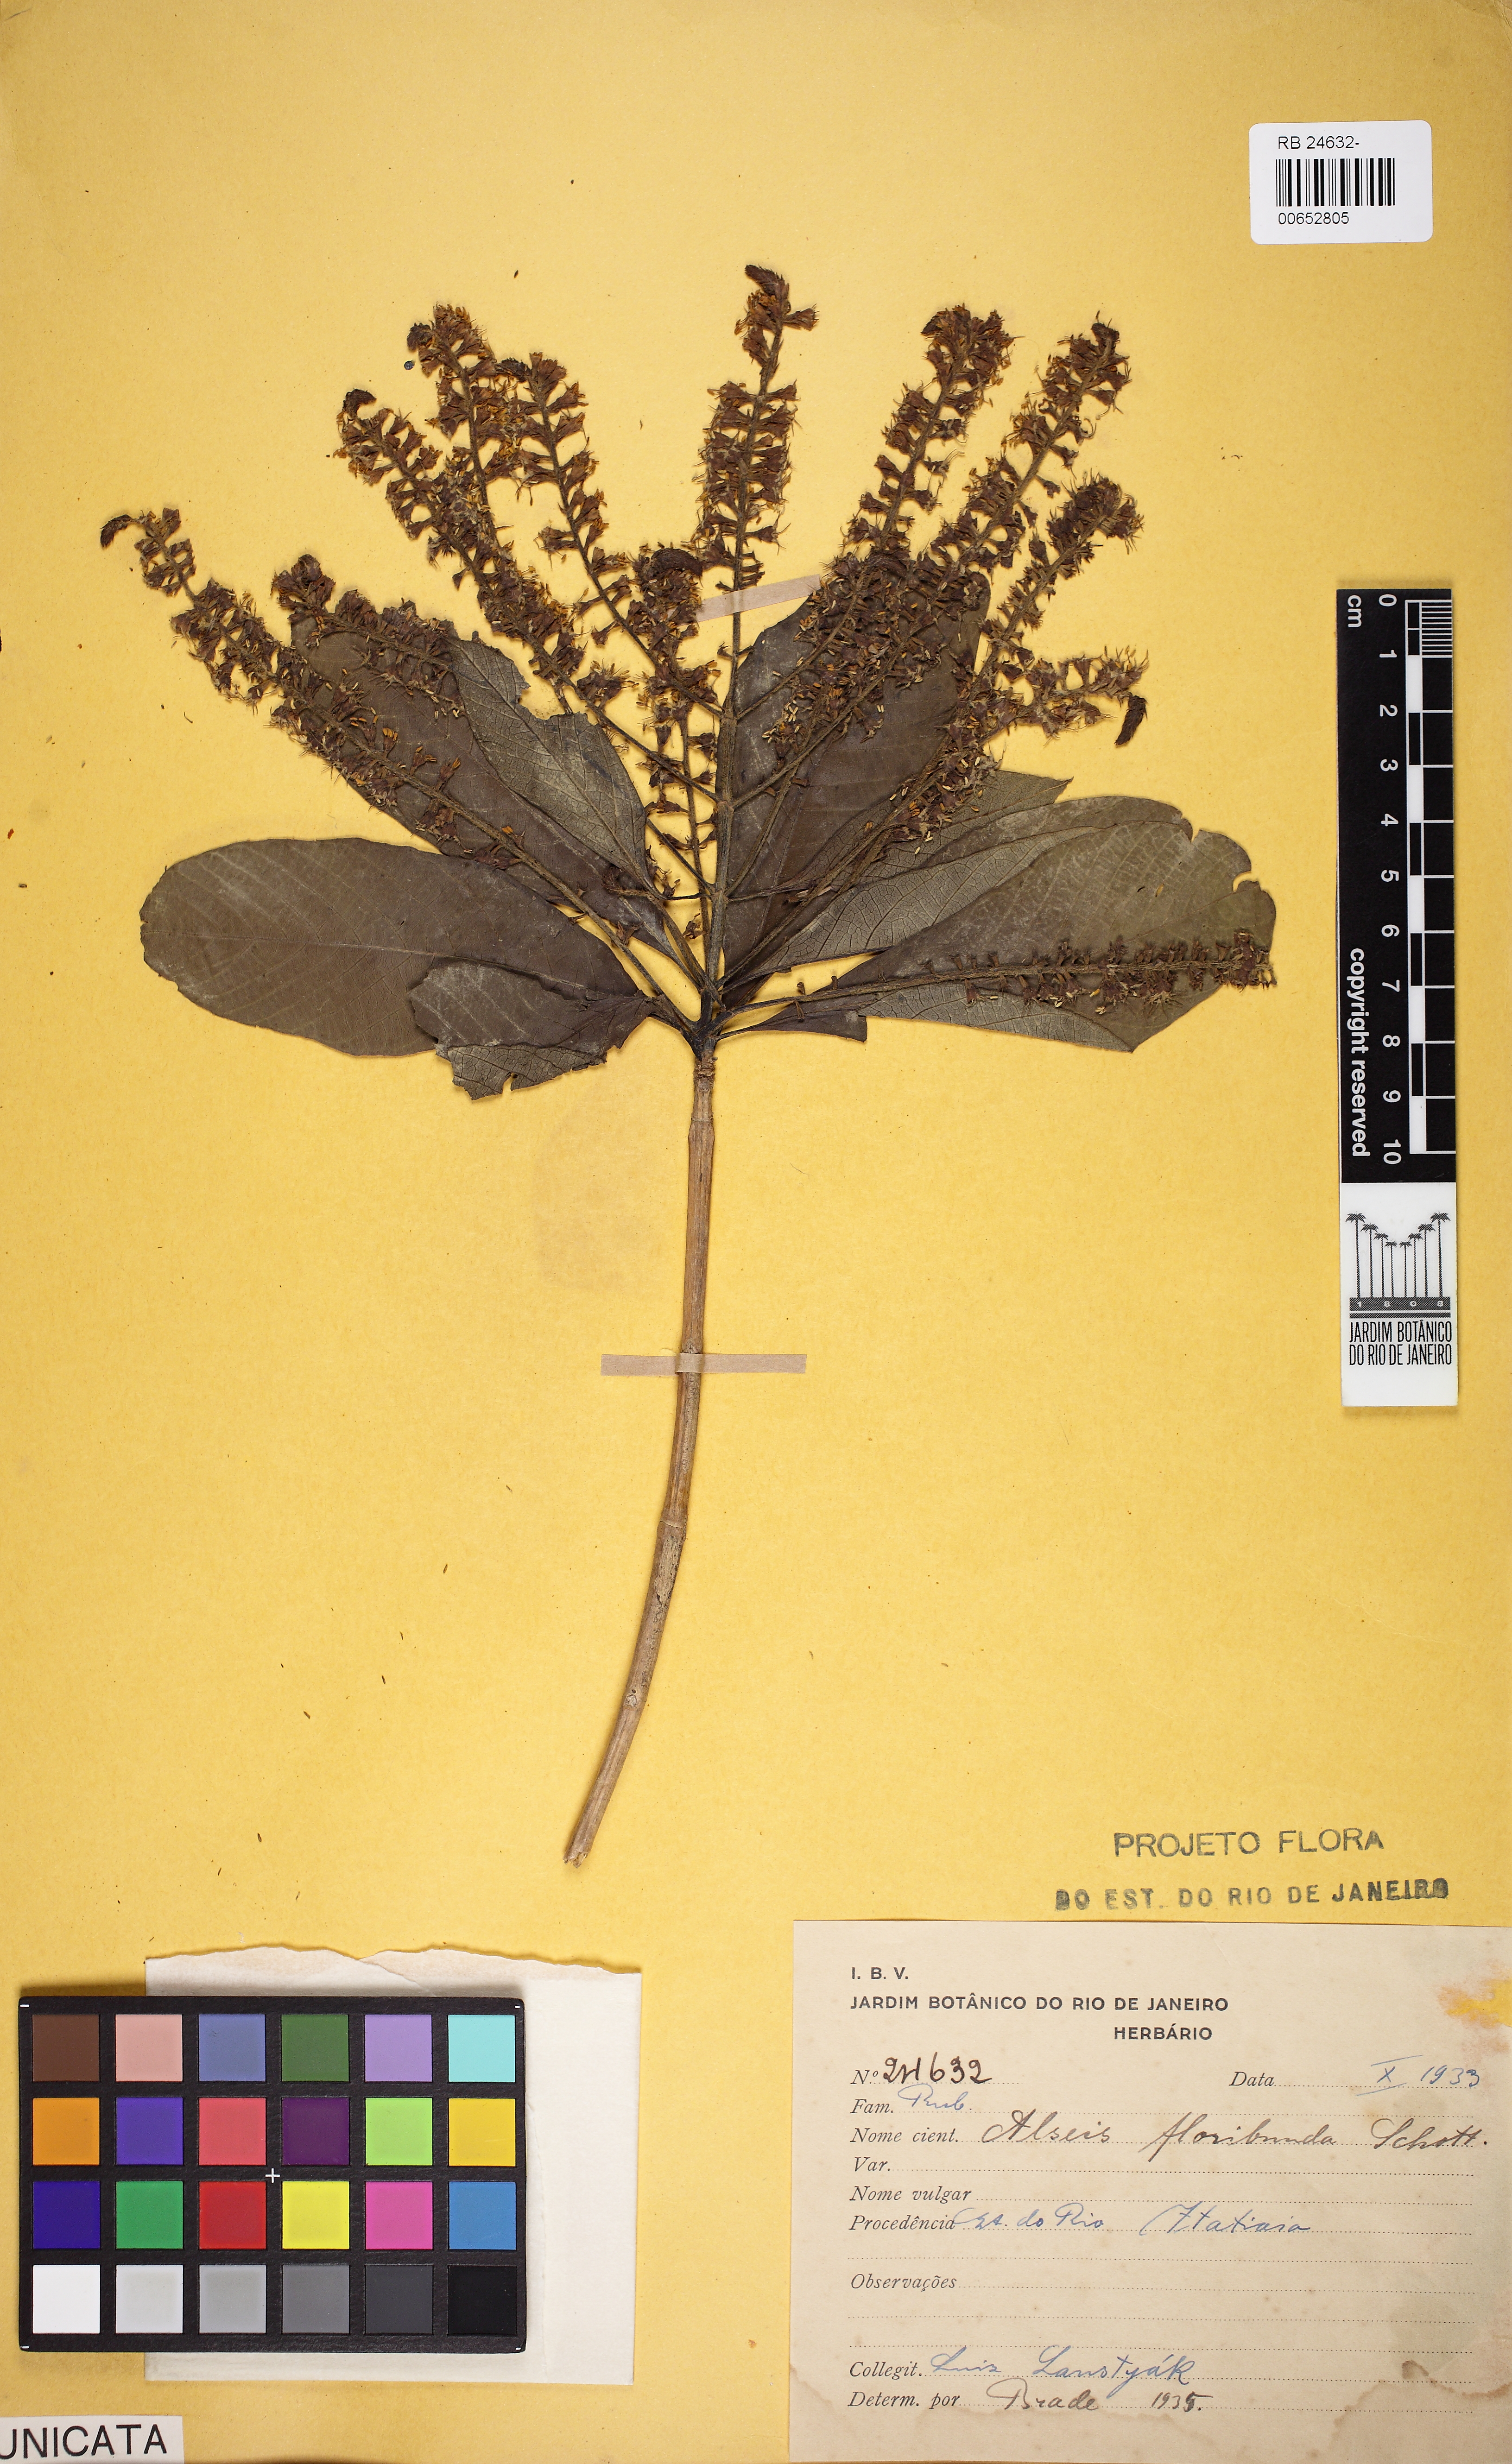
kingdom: Plantae
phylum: Tracheophyta
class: Magnoliopsida
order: Gentianales
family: Rubiaceae
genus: Alseis
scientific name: Alseis floribunda
